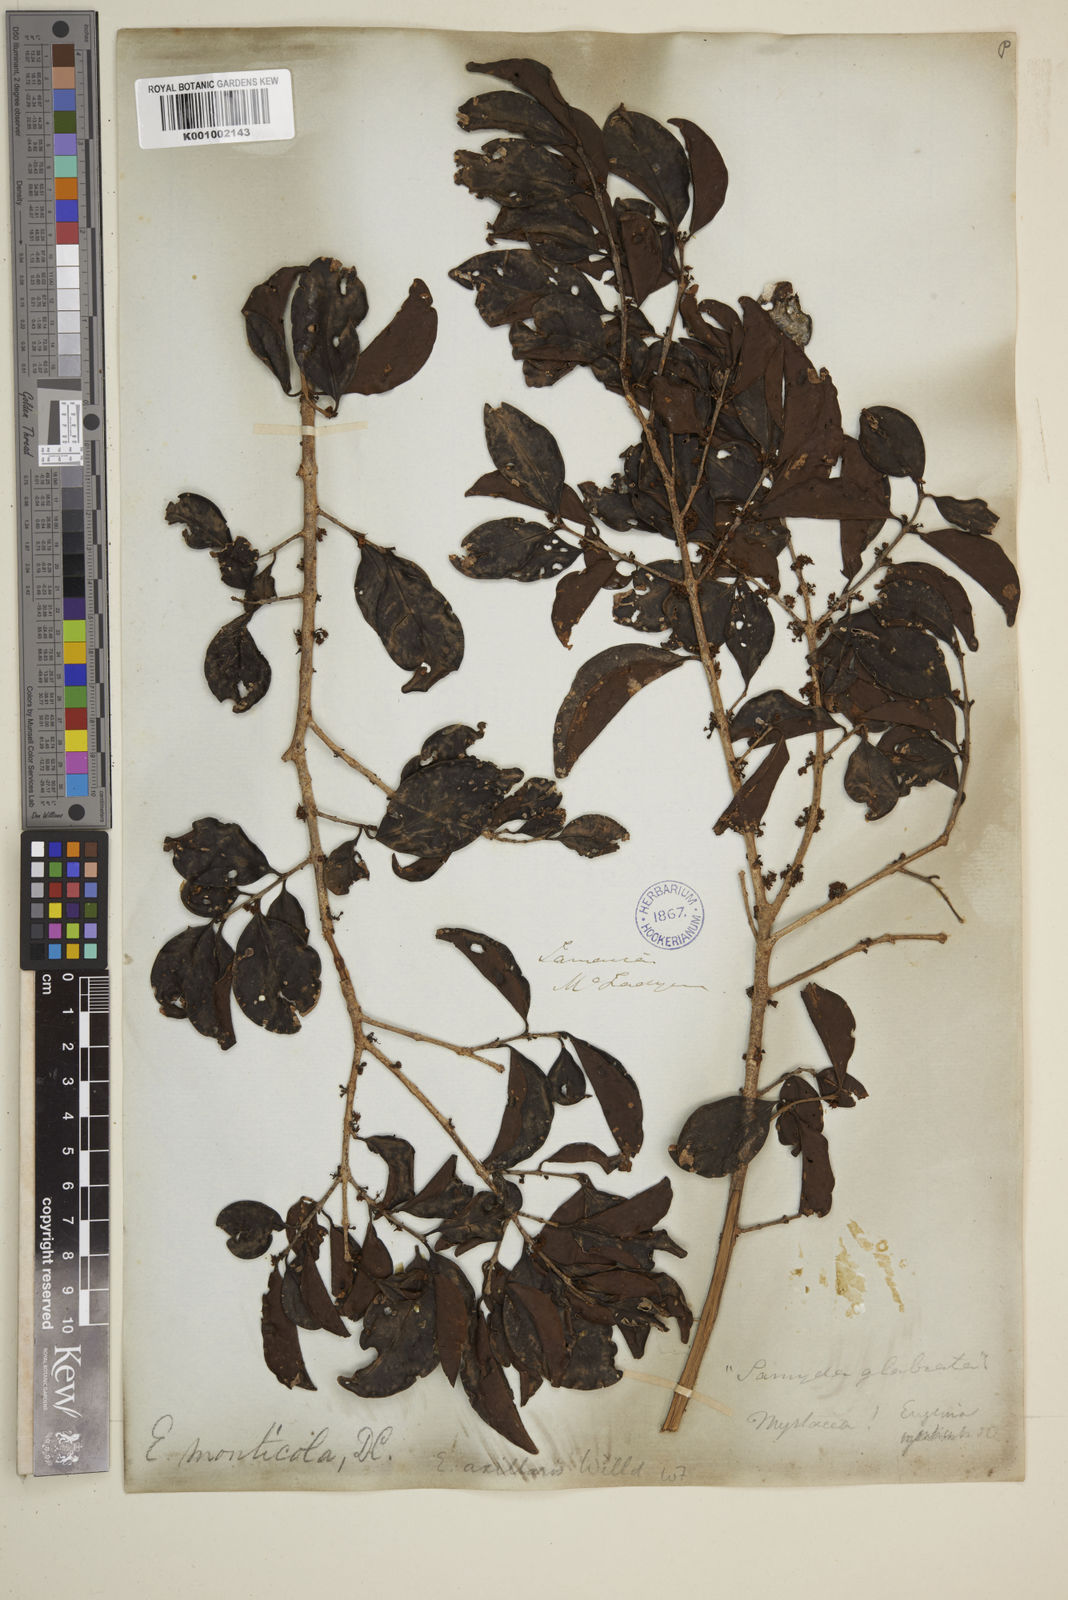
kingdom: Plantae
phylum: Tracheophyta
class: Magnoliopsida
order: Myrtales
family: Myrtaceae
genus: Eugenia
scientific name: Eugenia monticola
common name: Birds berry
